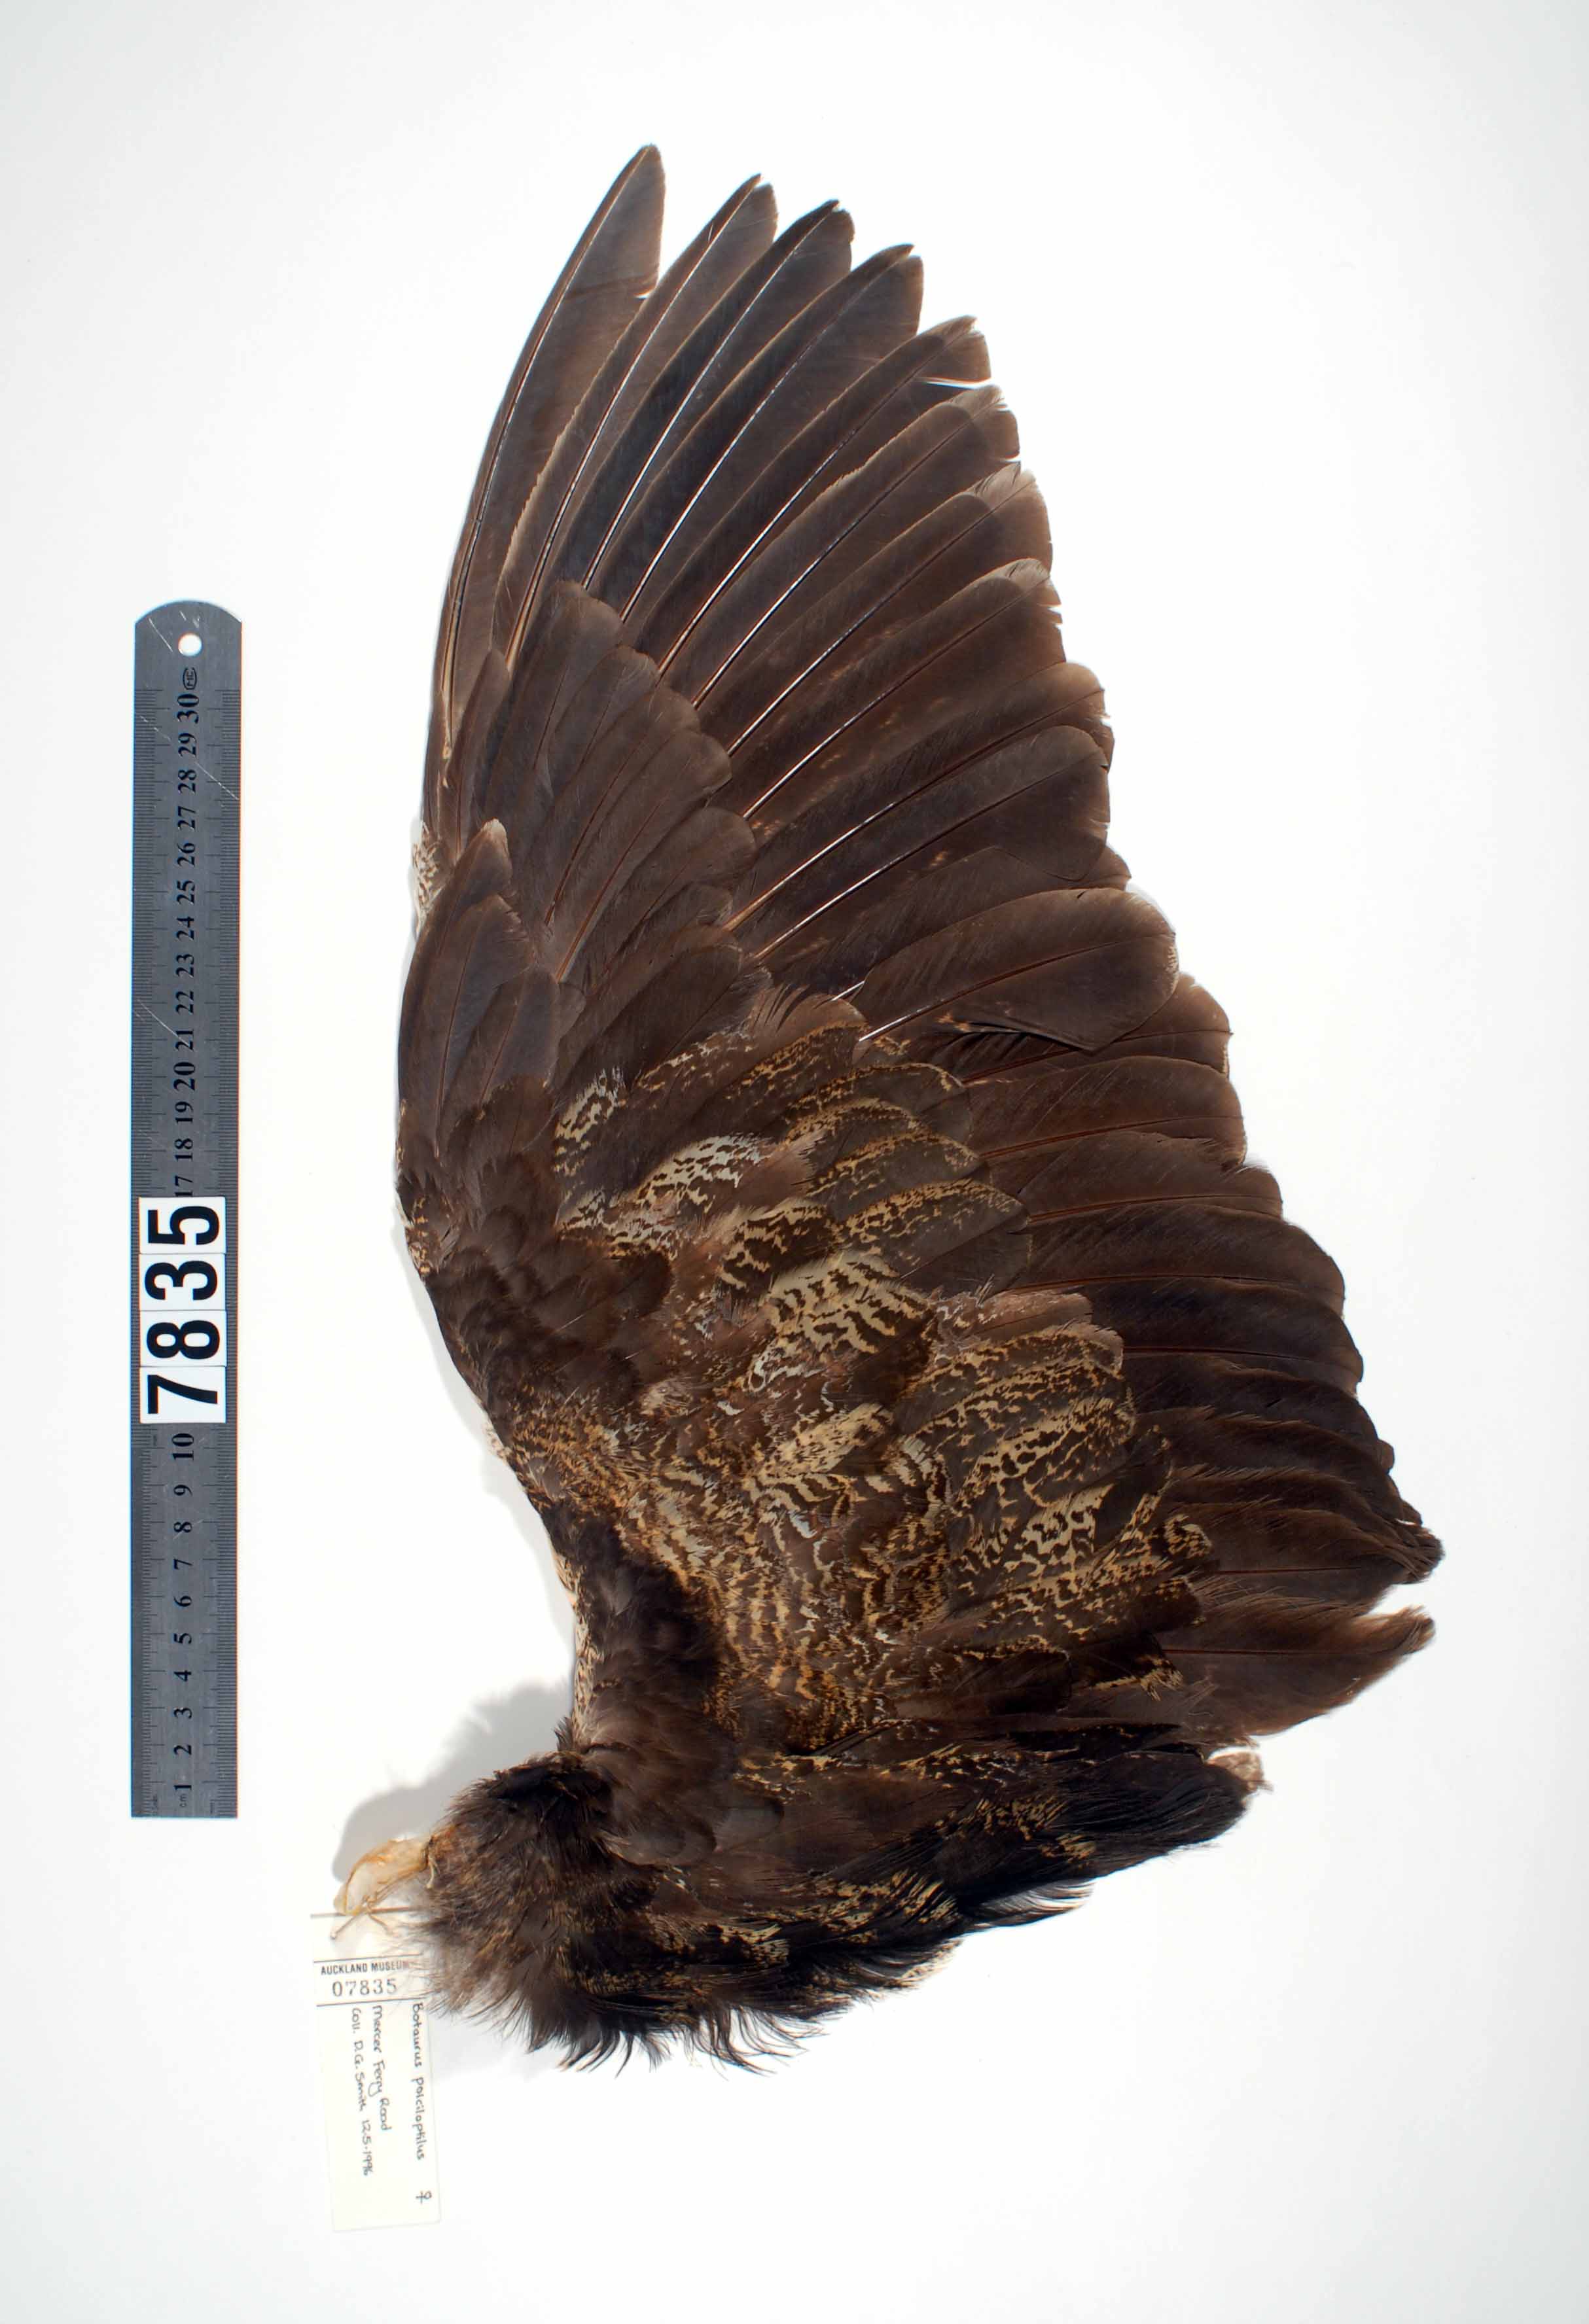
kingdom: Animalia
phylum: Chordata
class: Aves
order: Pelecaniformes
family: Ardeidae
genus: Botaurus
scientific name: Botaurus poiciloptilus
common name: Australasian bittern
